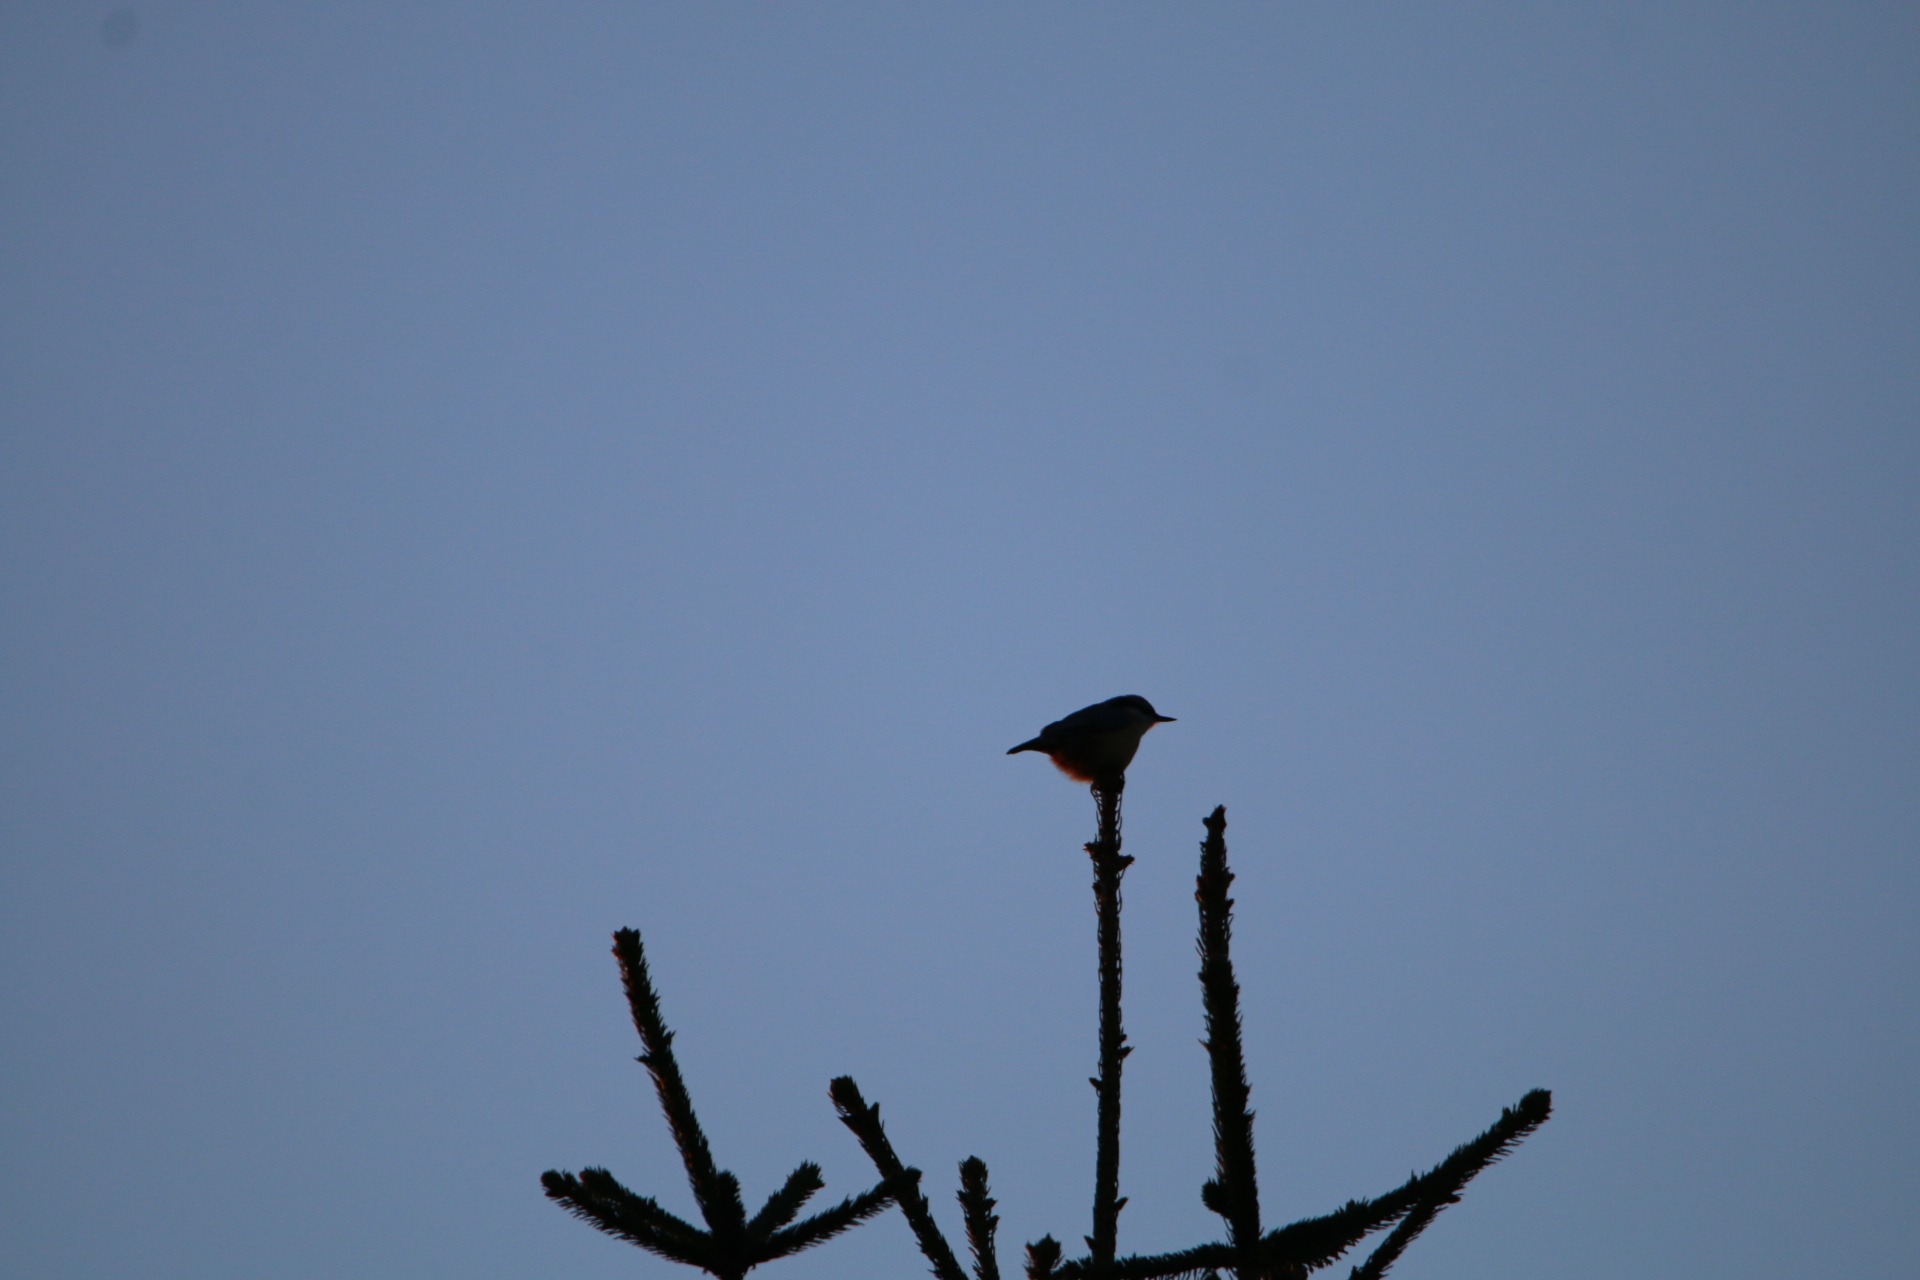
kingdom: Animalia
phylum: Chordata
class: Aves
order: Passeriformes
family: Sittidae
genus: Sitta
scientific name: Sitta europaea
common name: Spætmejse
